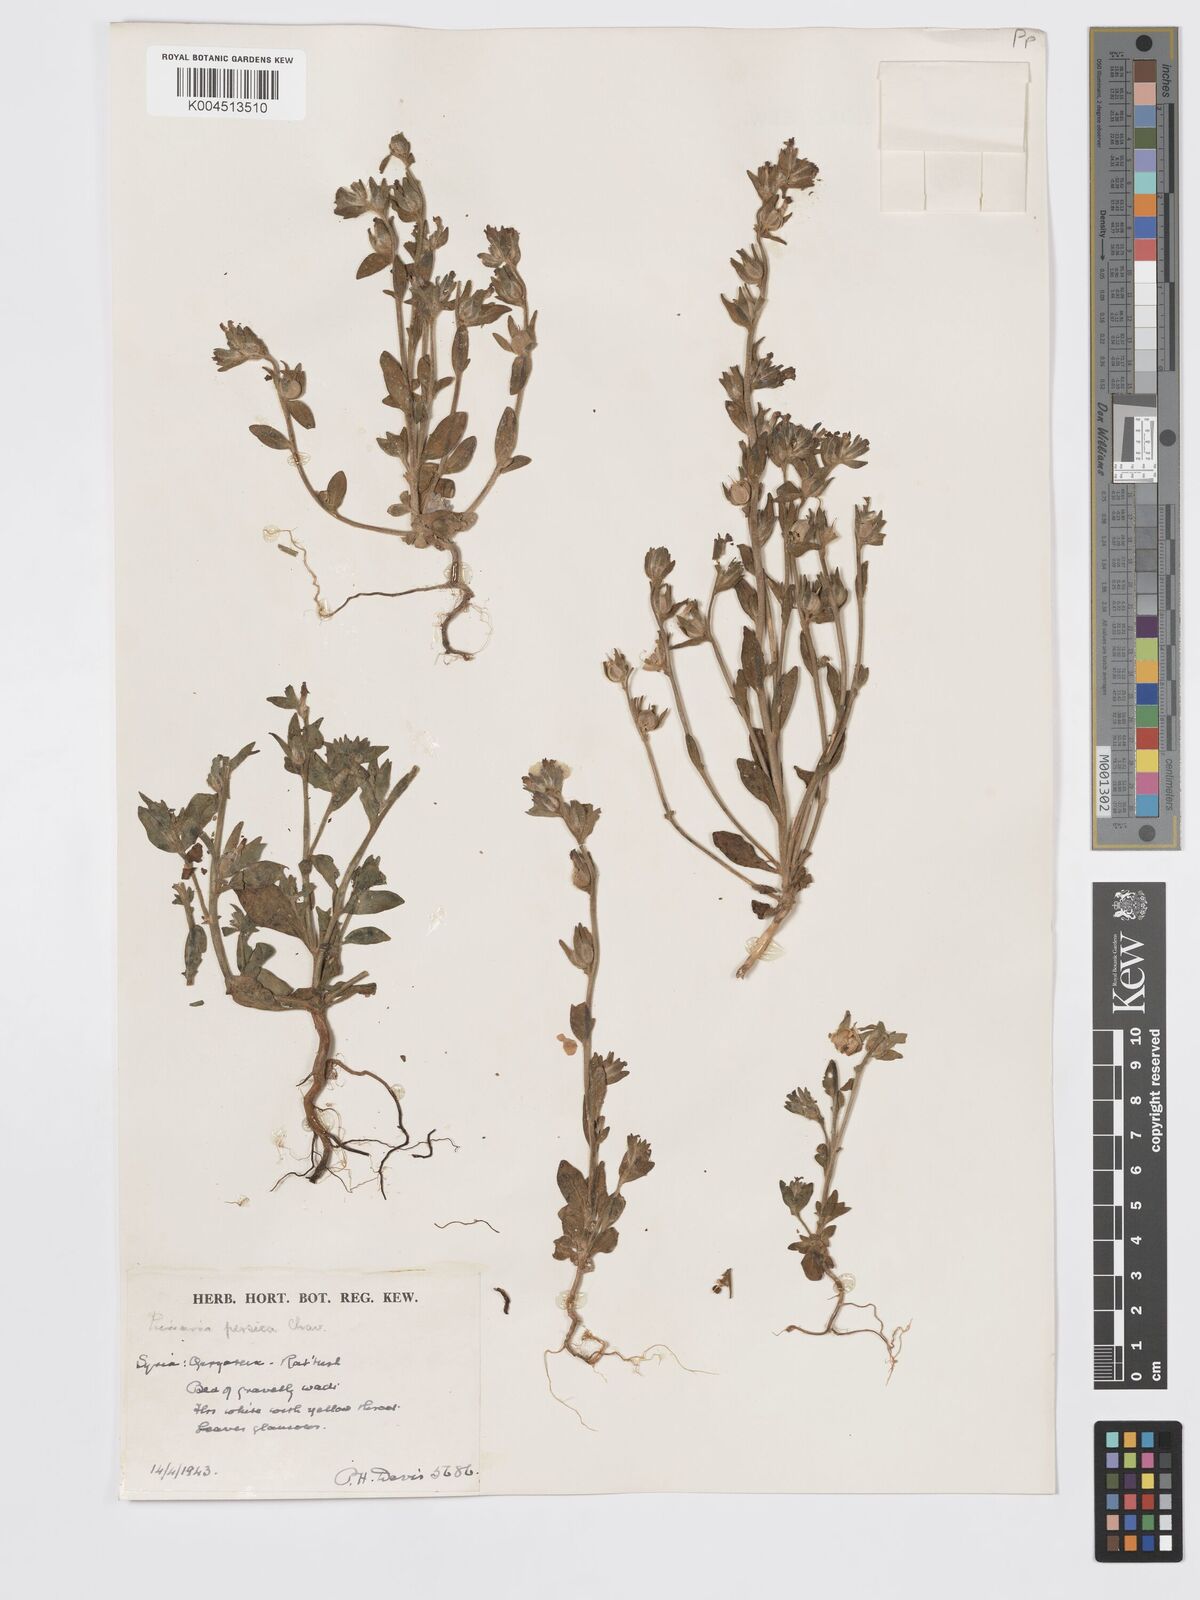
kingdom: Plantae
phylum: Tracheophyta
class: Magnoliopsida
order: Lamiales
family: Plantaginaceae
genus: Chaenorhinum
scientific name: Chaenorhinum calycinum
